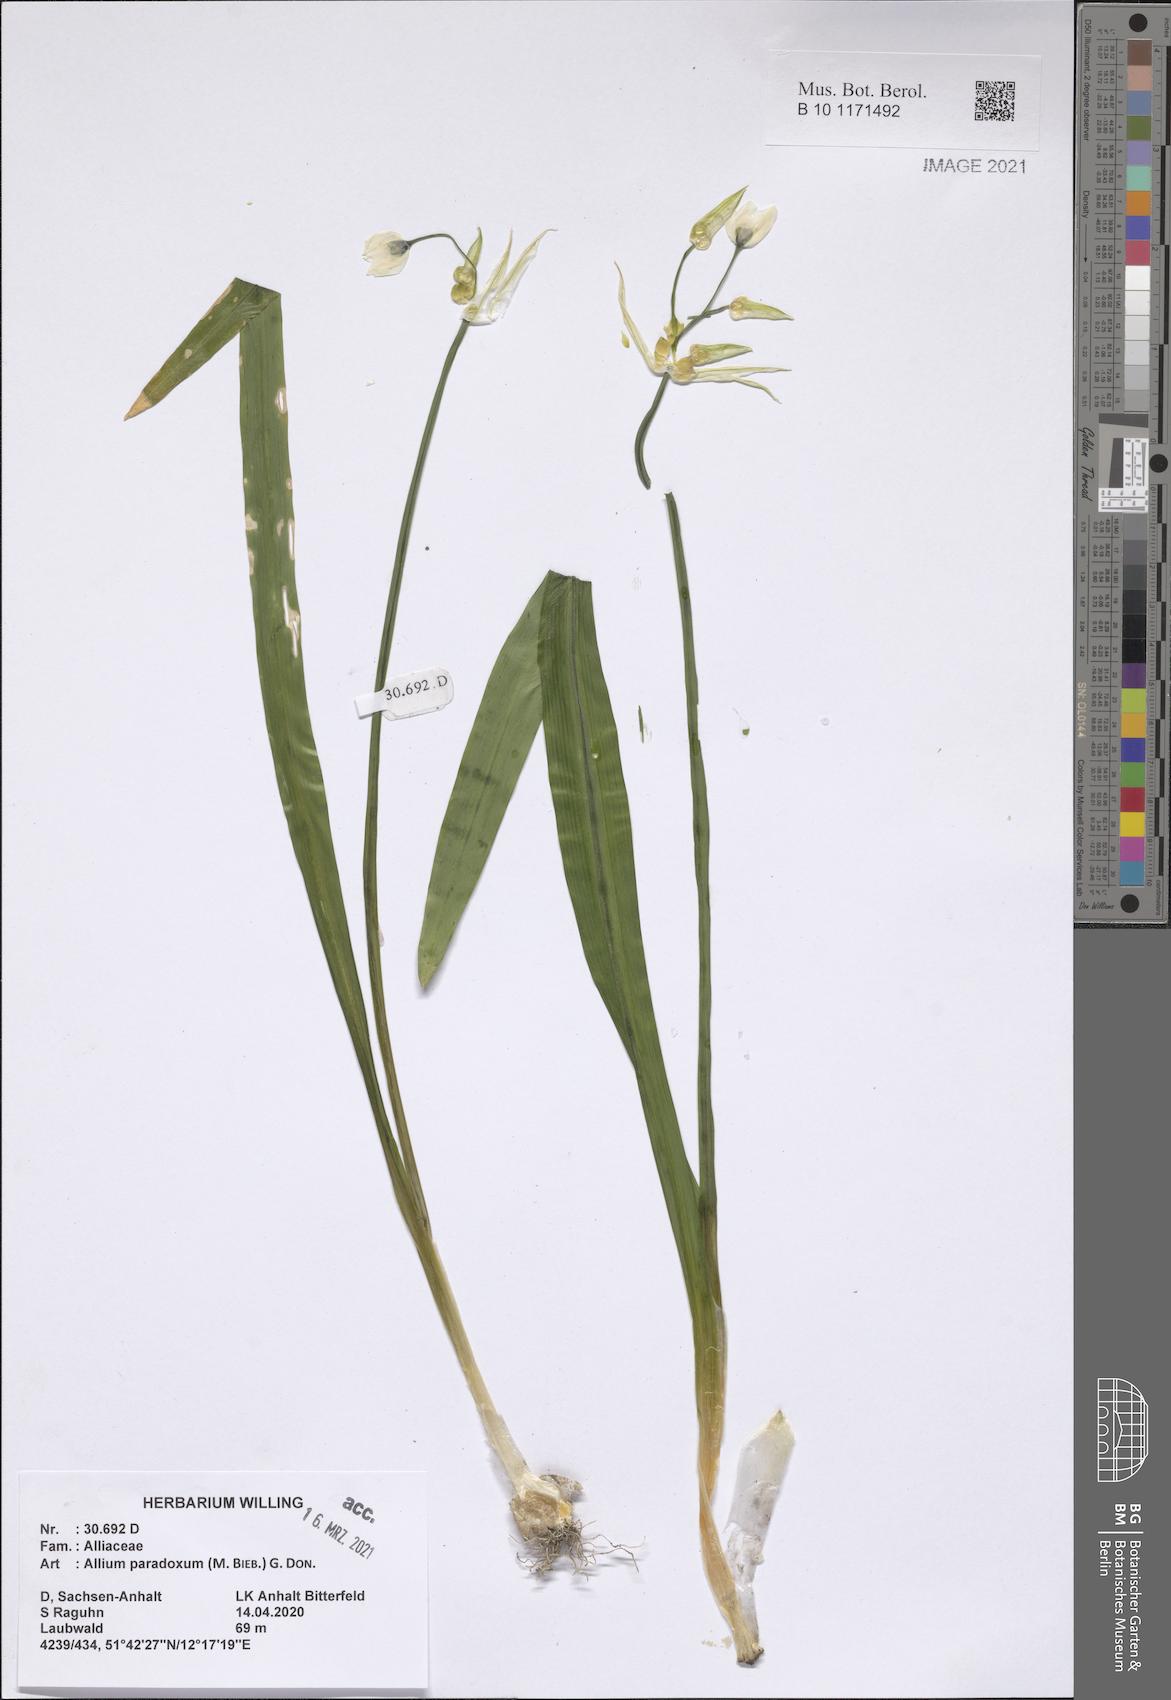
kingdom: Plantae
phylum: Tracheophyta
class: Liliopsida
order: Asparagales
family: Amaryllidaceae
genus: Allium
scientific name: Allium paradoxum
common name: Few-flowered garlic
